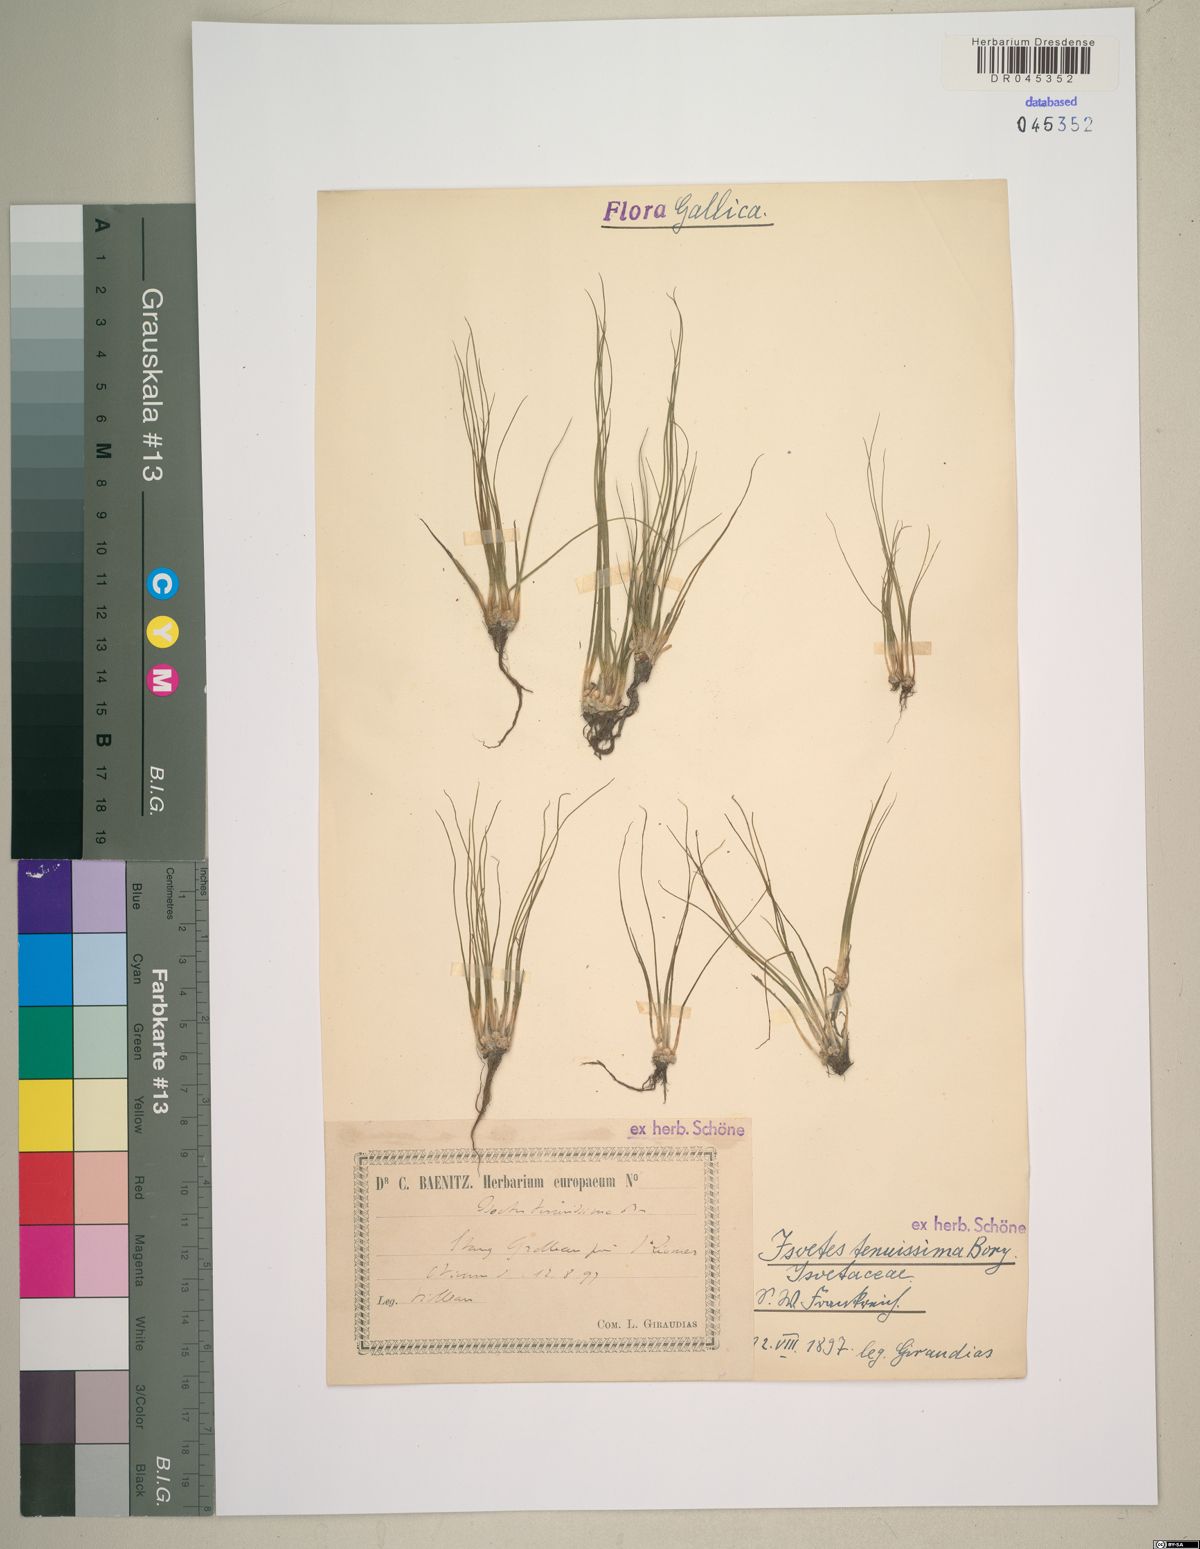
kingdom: Plantae
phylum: Tracheophyta
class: Lycopodiopsida
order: Isoetales
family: Isoetaceae
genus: Isoetes
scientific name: Isoetes longissima
